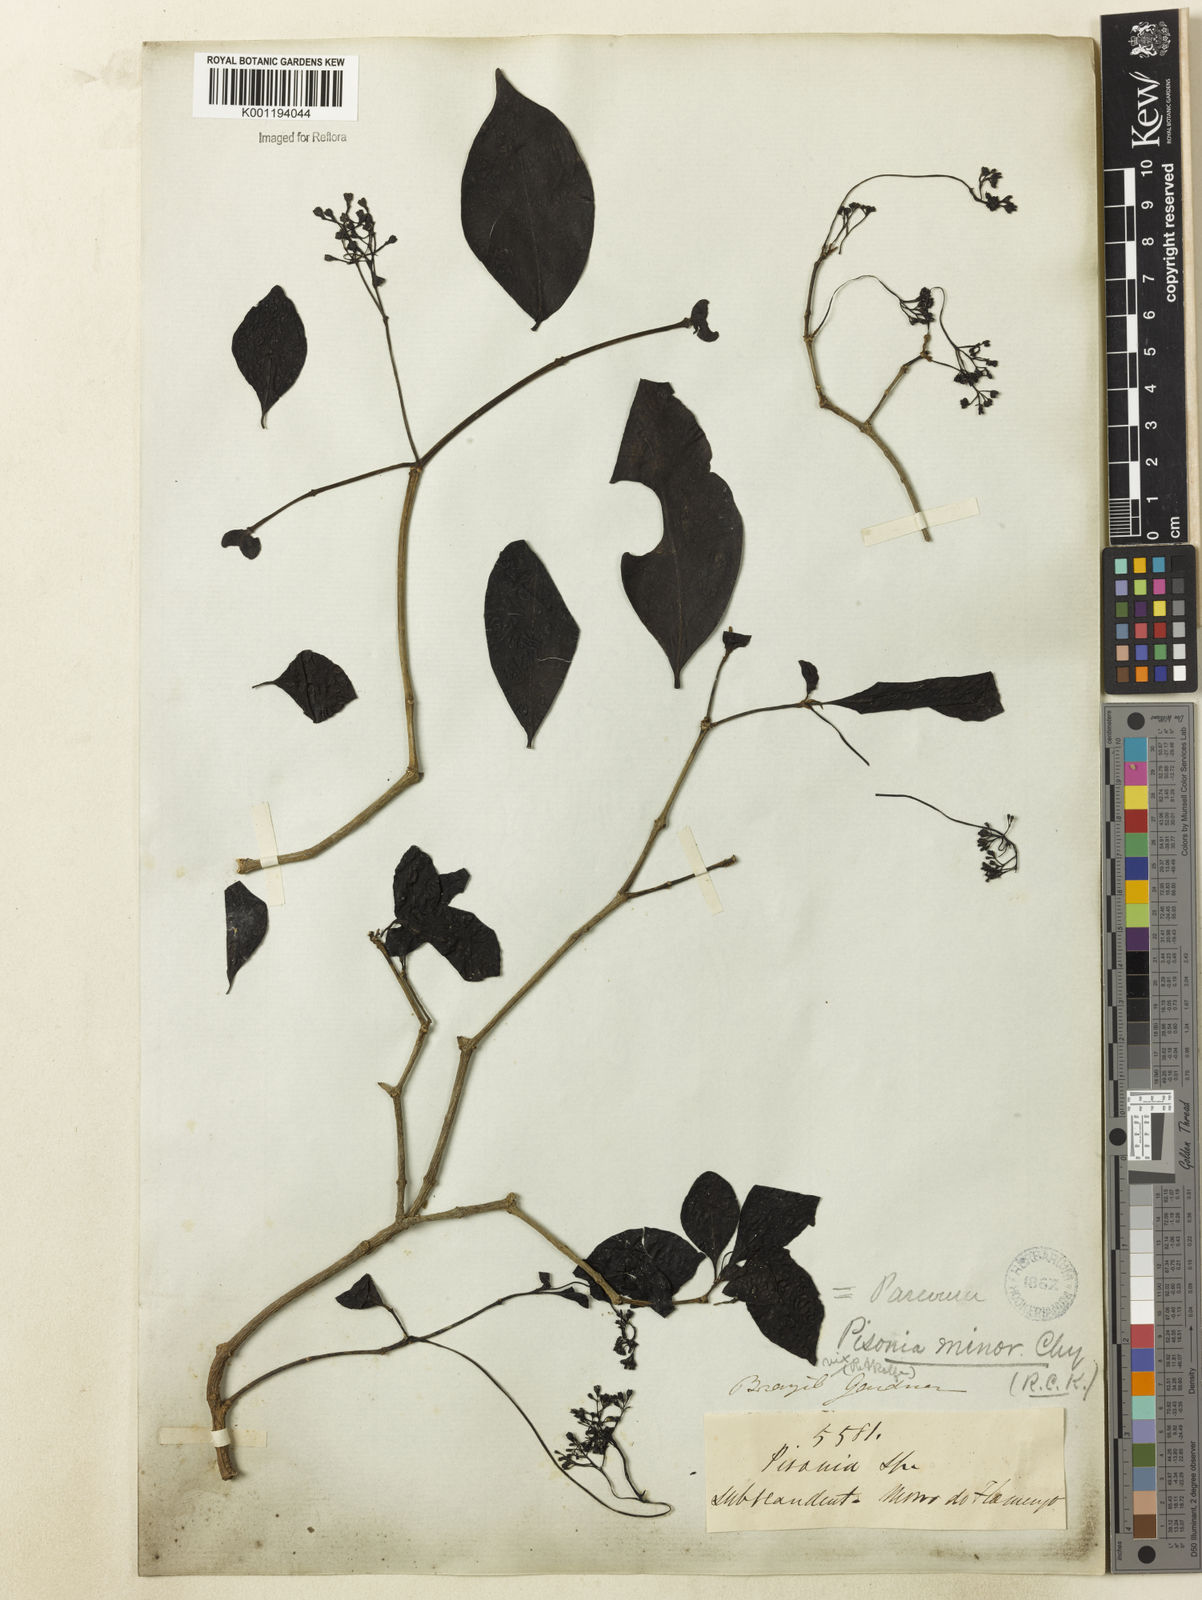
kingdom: Plantae
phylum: Tracheophyta
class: Magnoliopsida
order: Caryophyllales
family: Nyctaginaceae
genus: Guapira
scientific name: Guapira
